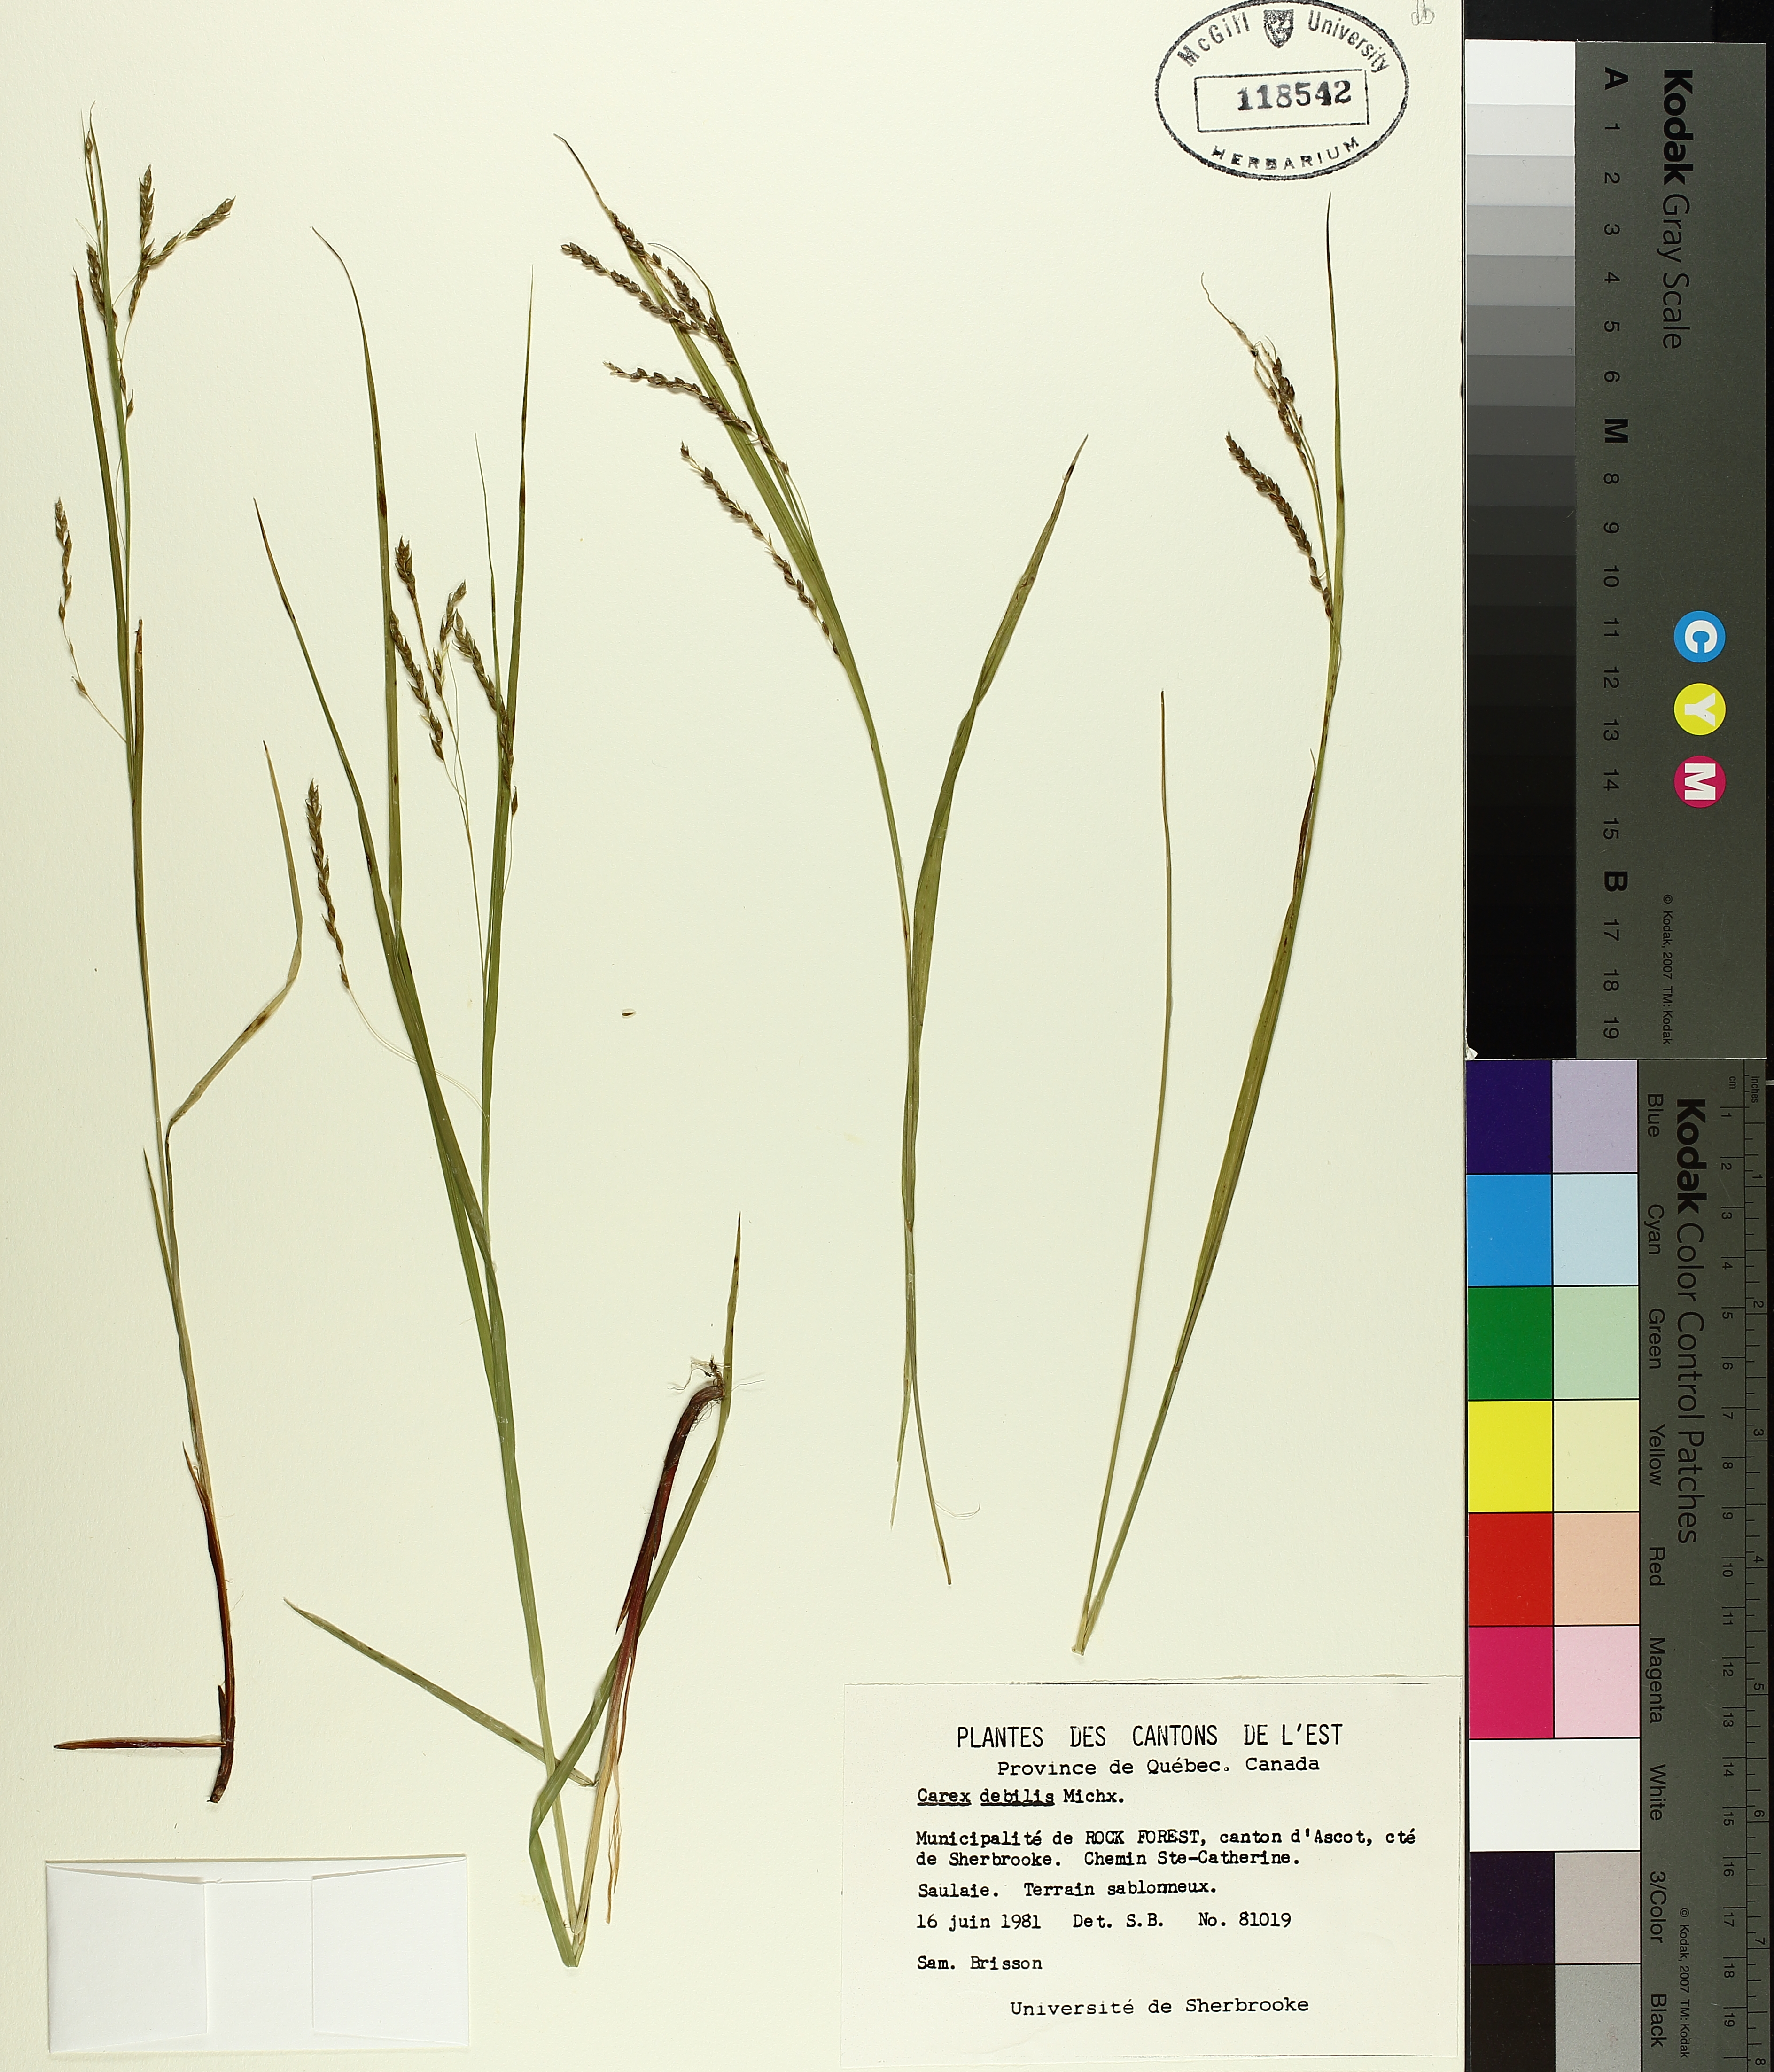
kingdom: Plantae
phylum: Tracheophyta
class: Liliopsida
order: Poales
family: Cyperaceae
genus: Carex
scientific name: Carex debilis
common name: White-edge sedge
